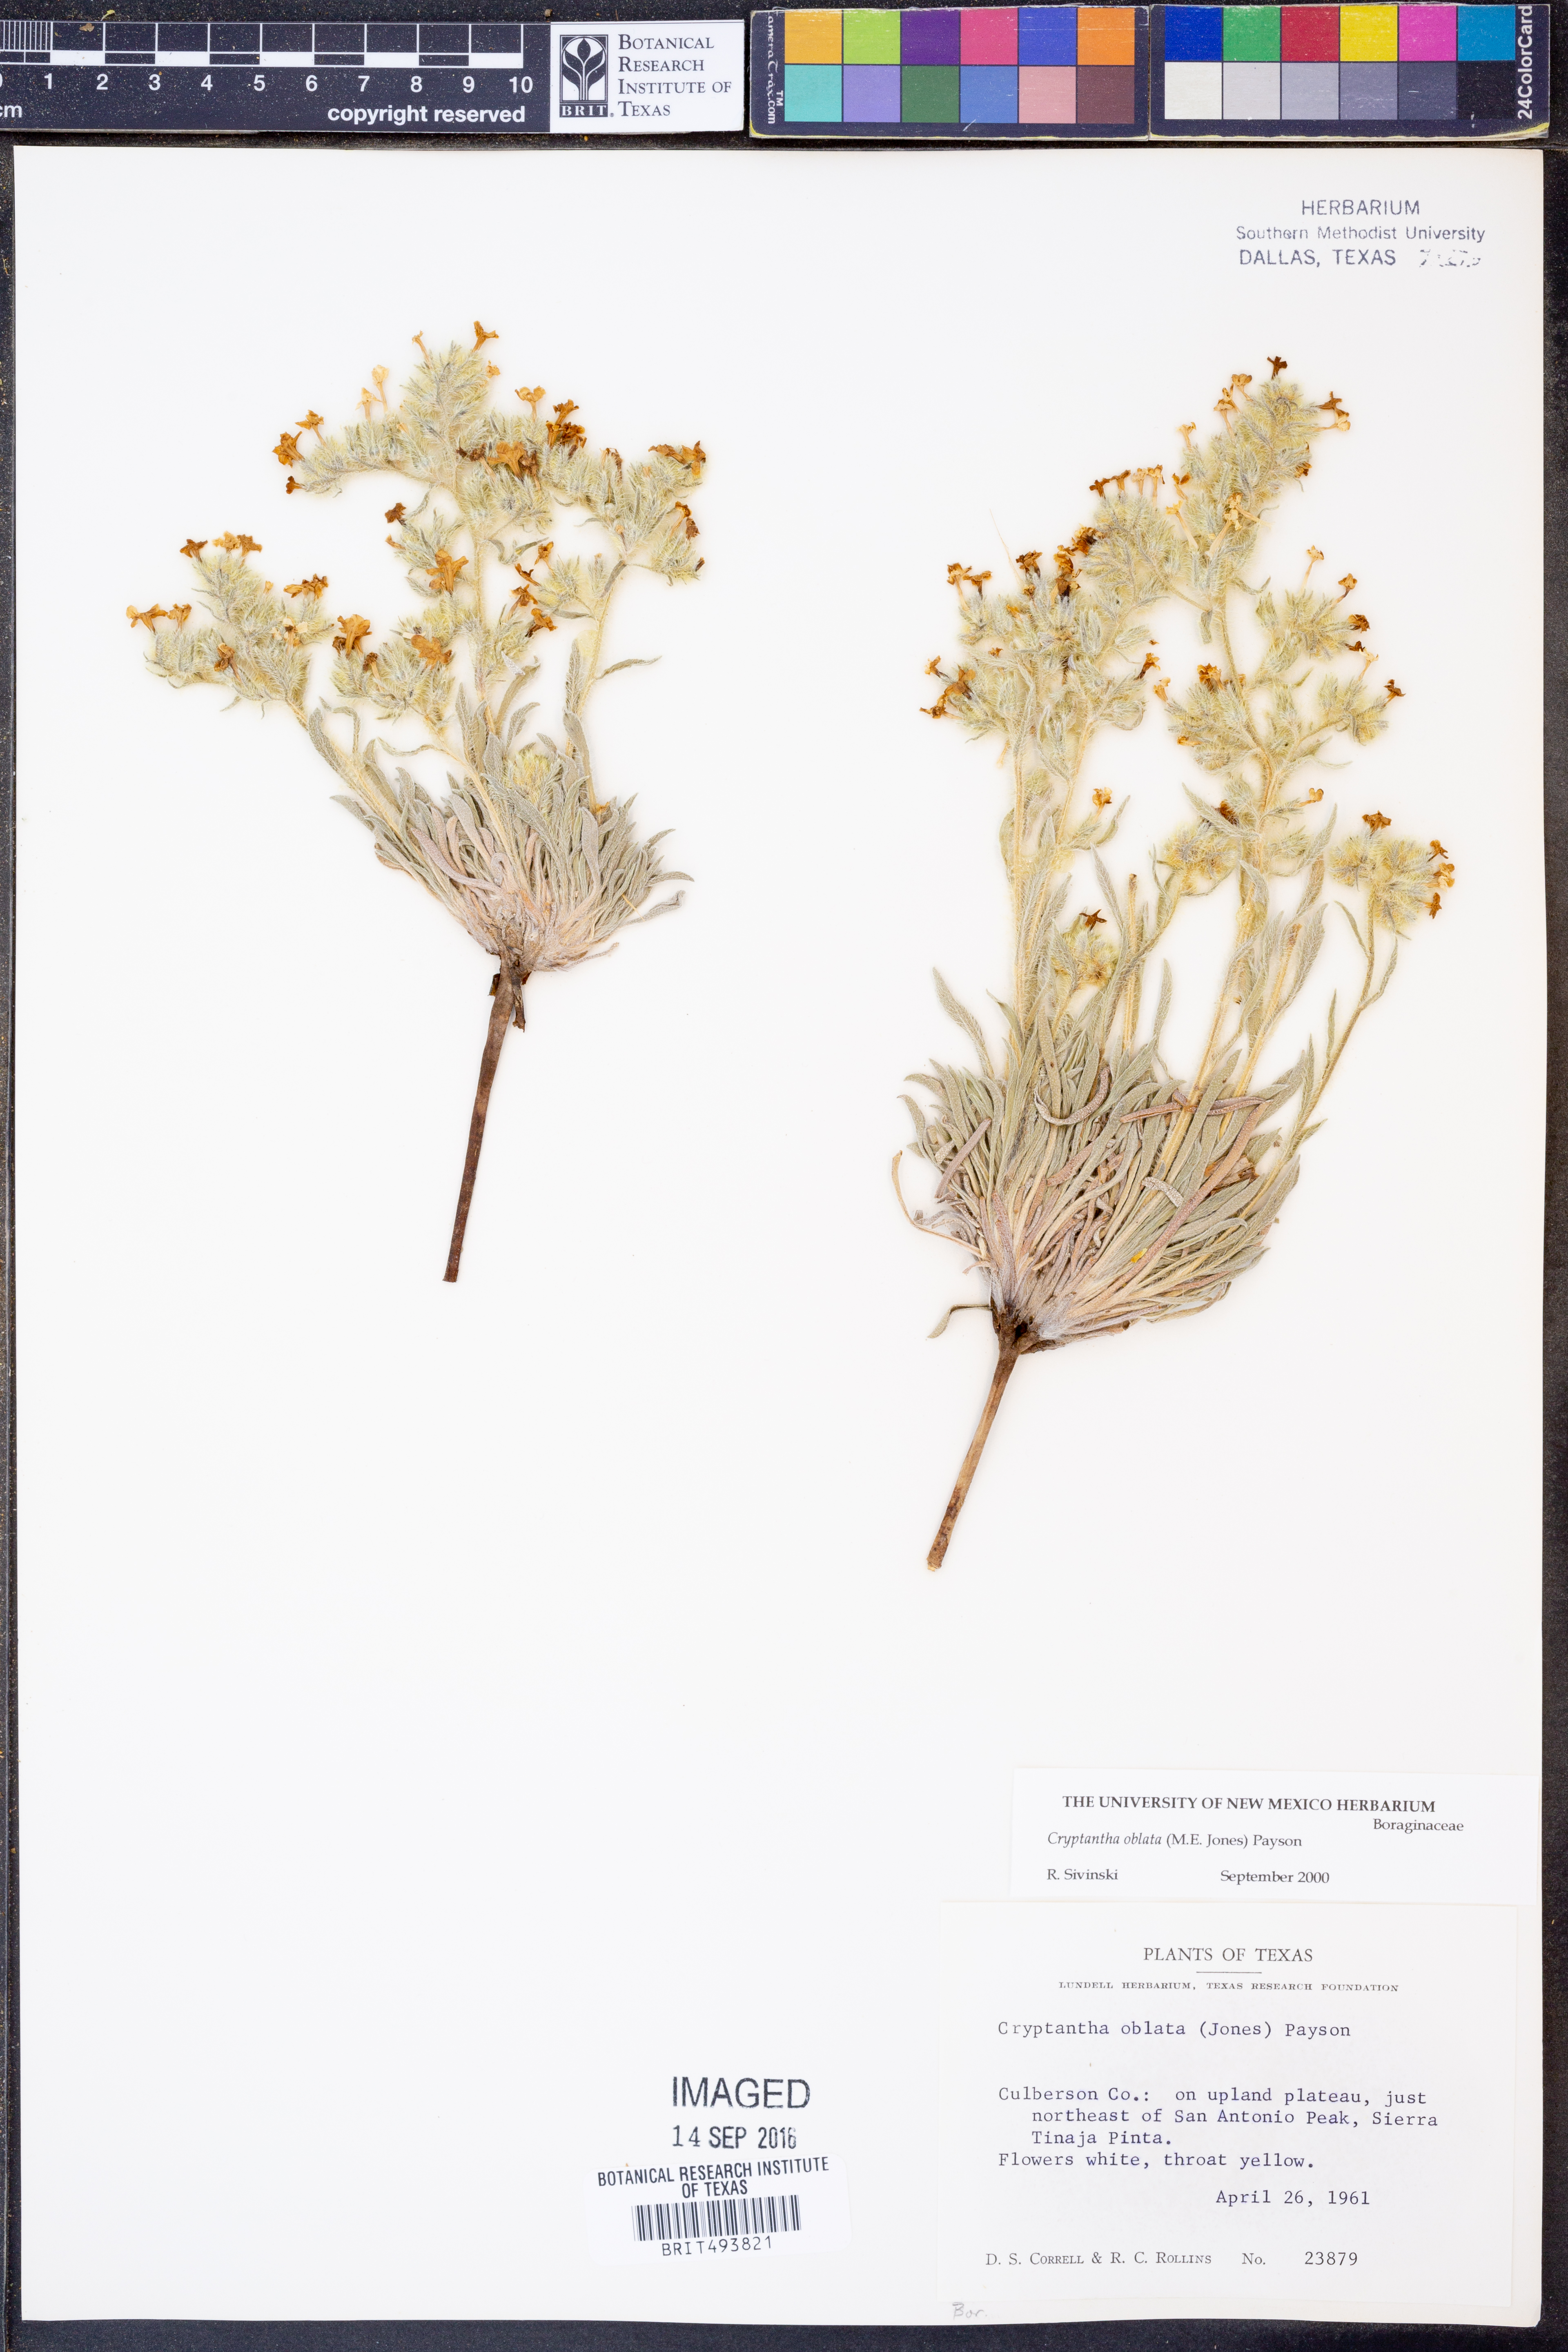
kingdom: Plantae
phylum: Tracheophyta
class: Magnoliopsida
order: Boraginales
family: Boraginaceae
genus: Oreocarya
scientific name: Oreocarya oblata
